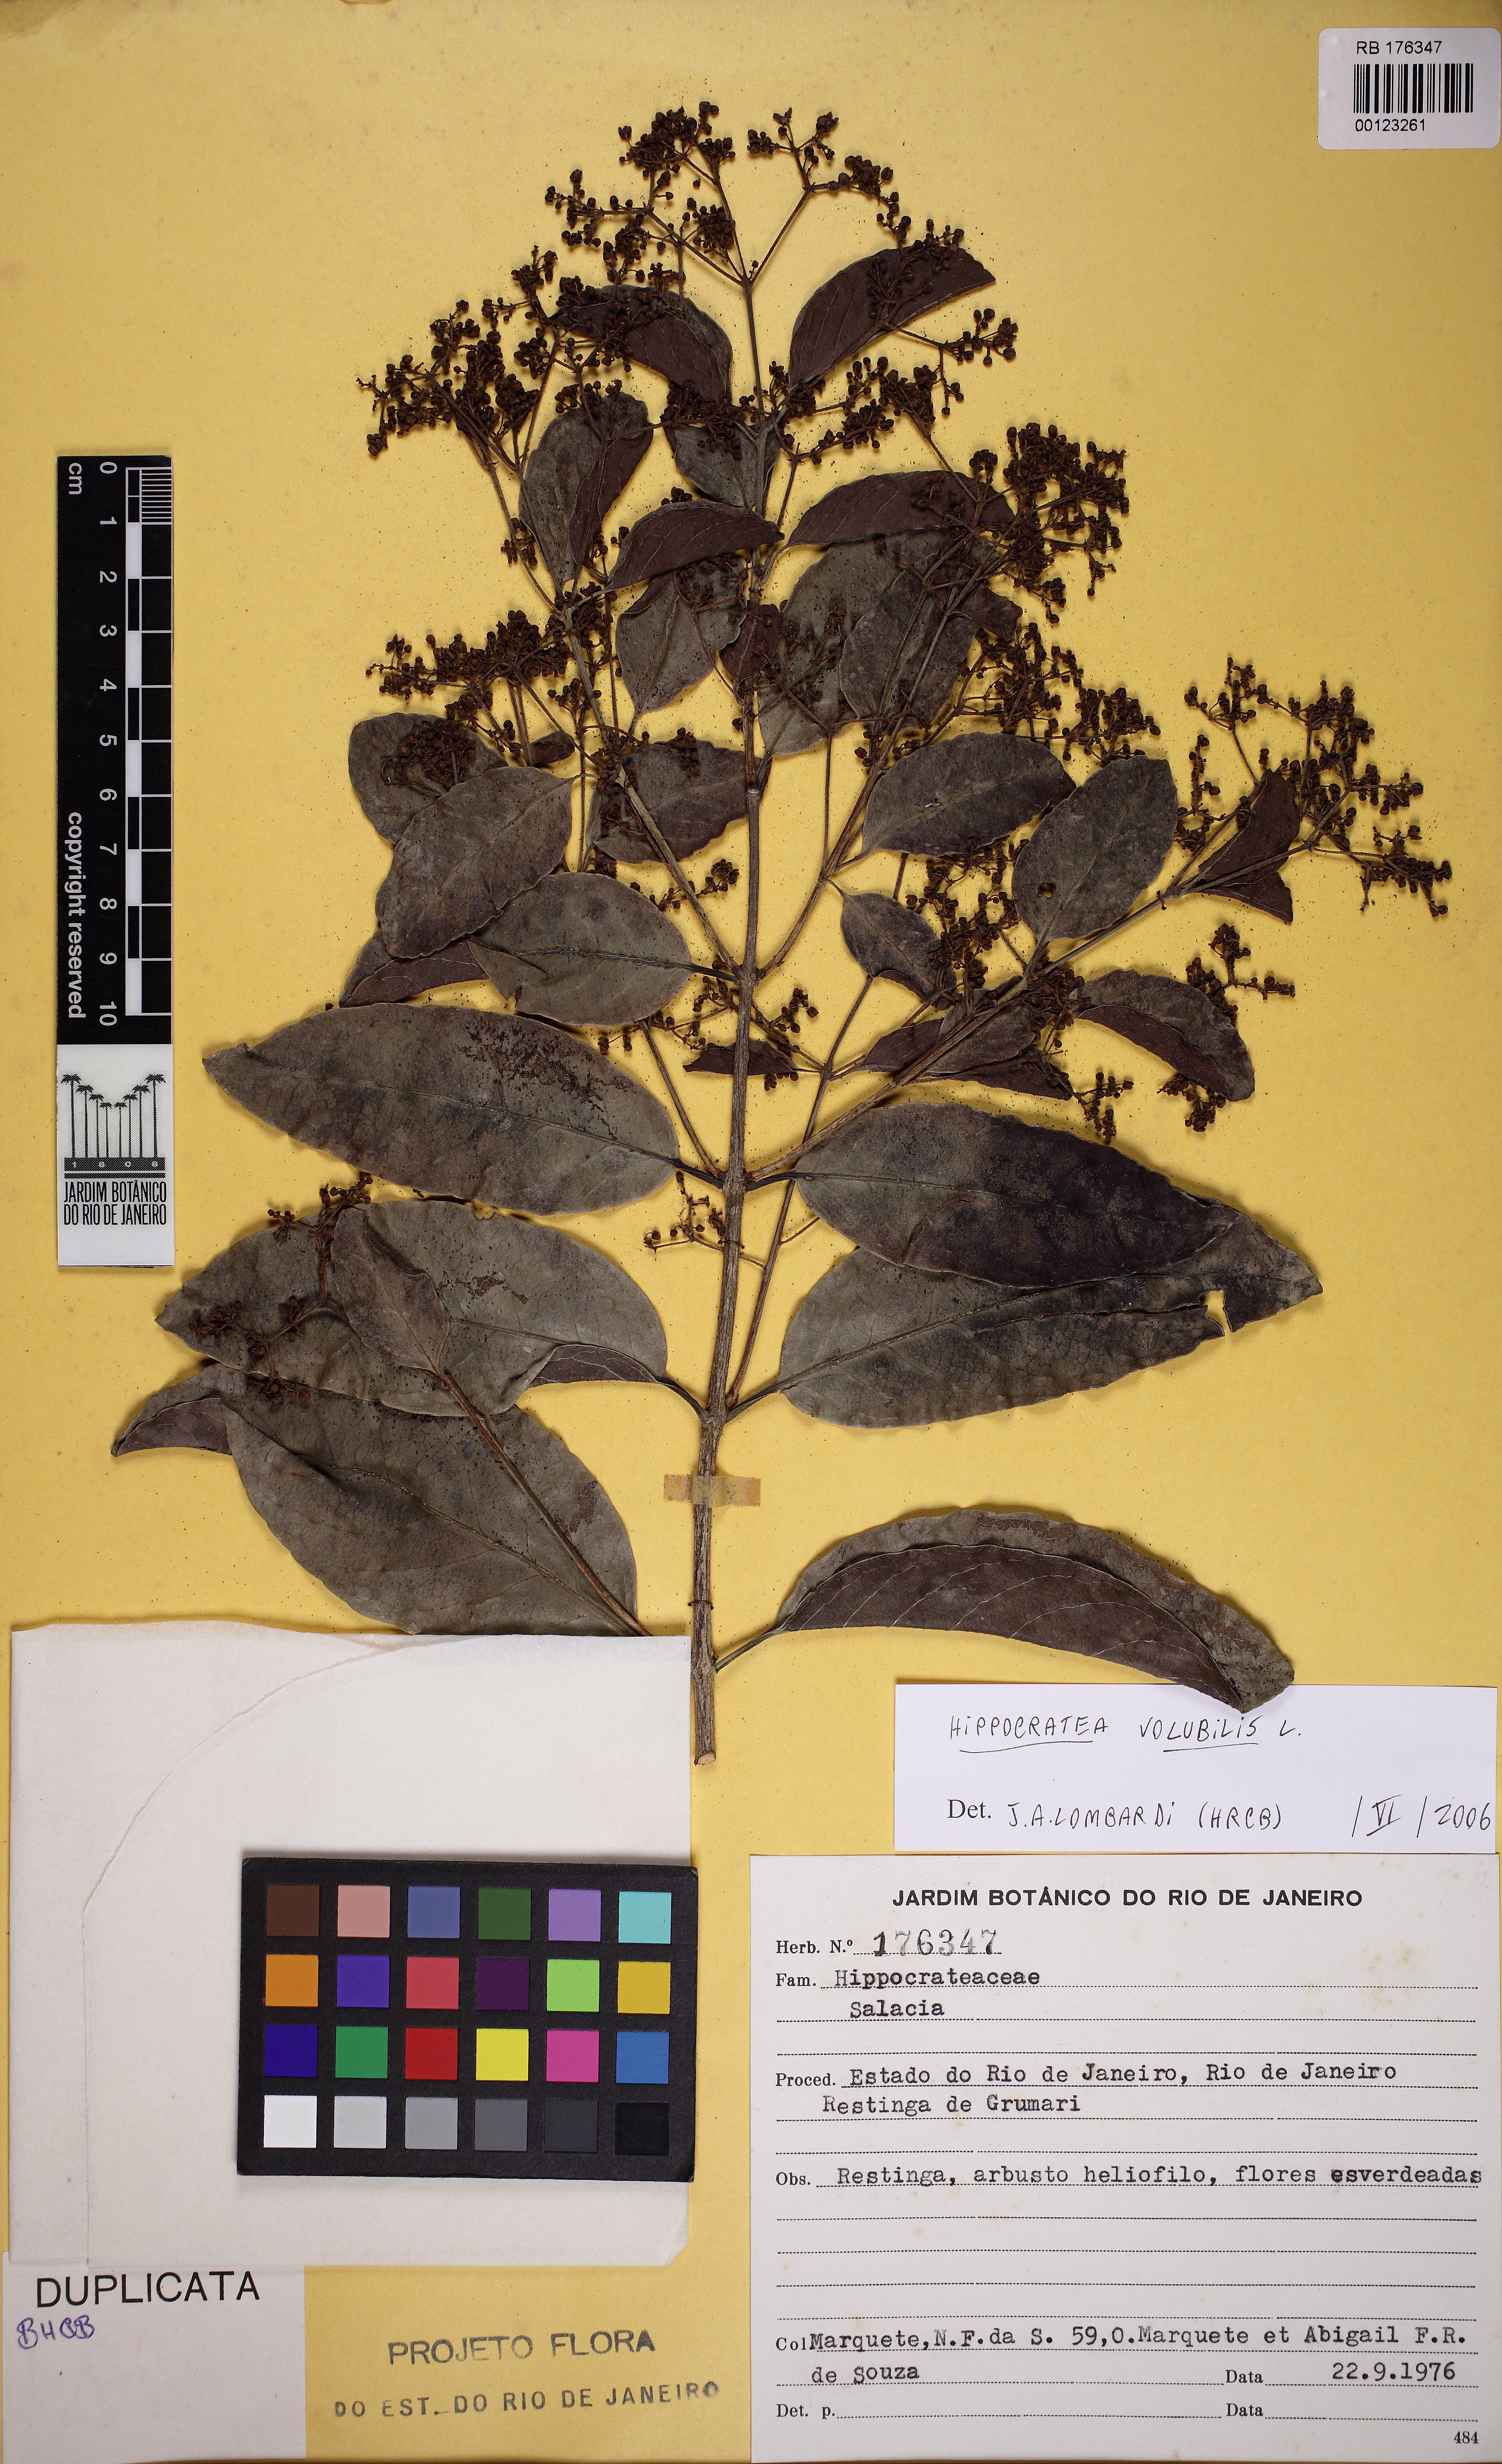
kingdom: Plantae
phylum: Tracheophyta
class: Magnoliopsida
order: Celastrales
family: Celastraceae
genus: Salacia
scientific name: Salacia
